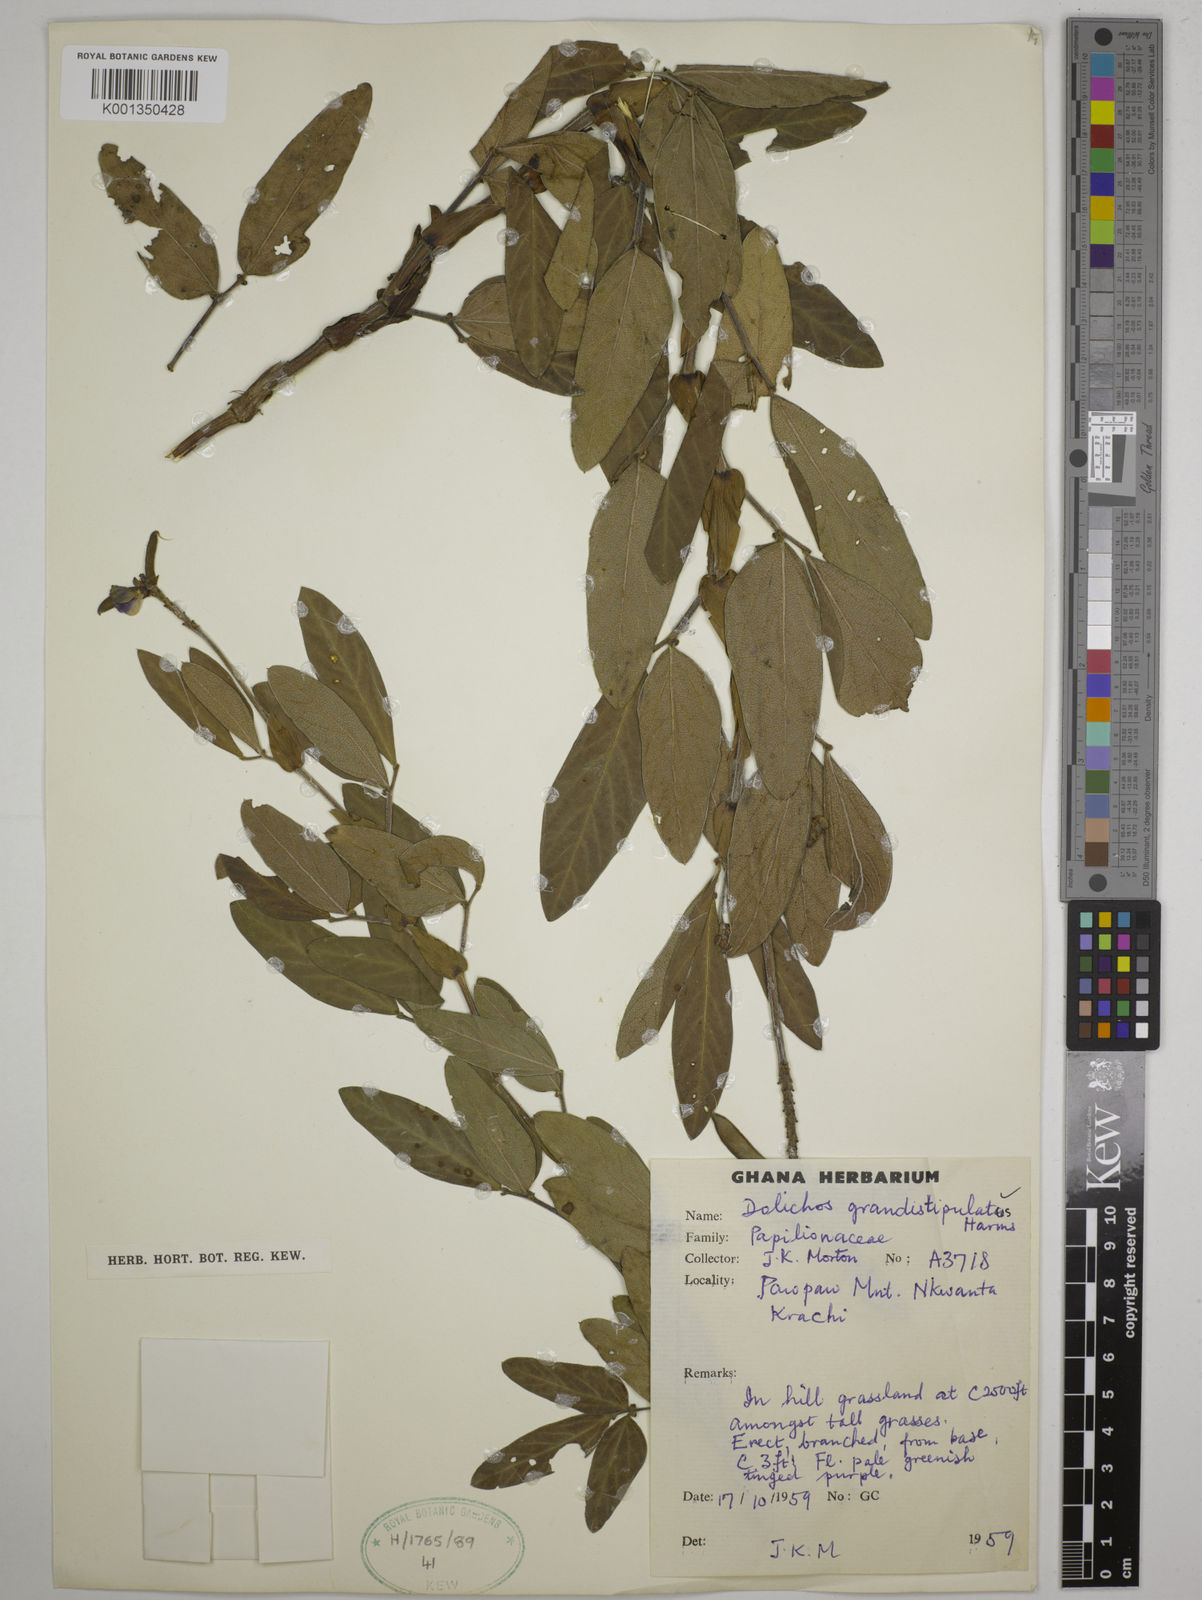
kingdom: Plantae
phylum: Tracheophyta
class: Magnoliopsida
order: Fabales
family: Fabaceae
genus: Dolichos
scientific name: Dolichos grandistipulatus
